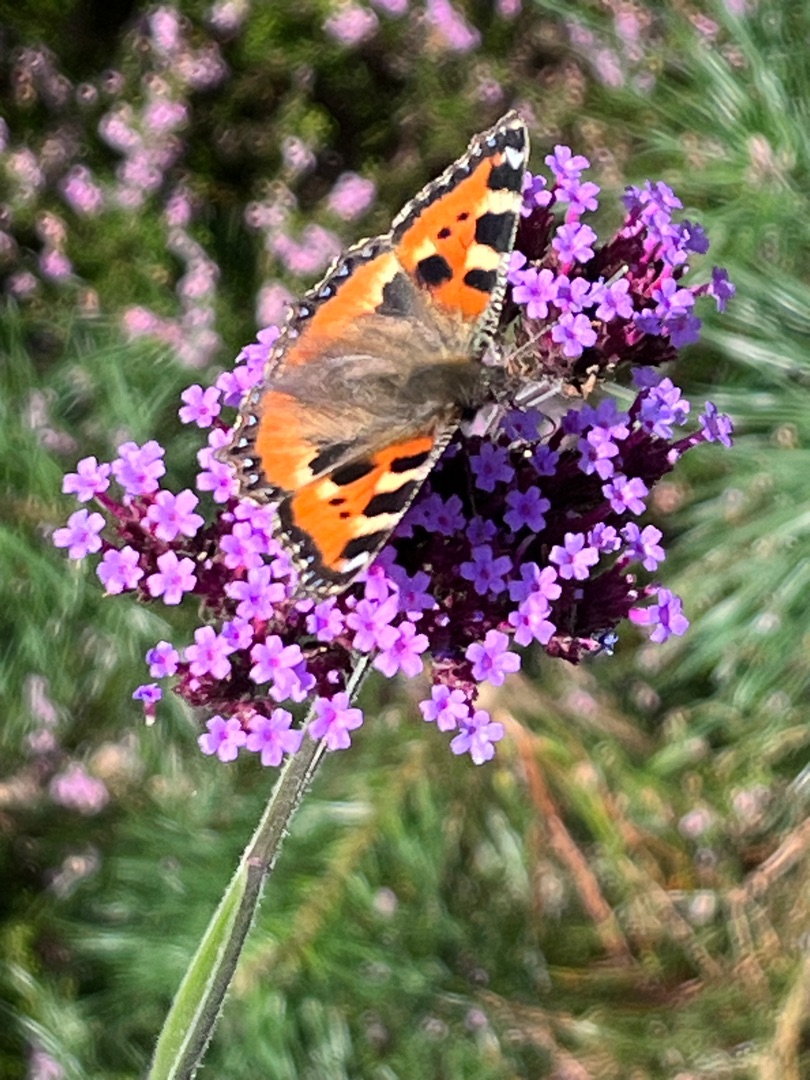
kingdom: Animalia
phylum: Arthropoda
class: Insecta
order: Lepidoptera
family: Nymphalidae
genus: Aglais
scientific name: Aglais urticae
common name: Nældens takvinge
